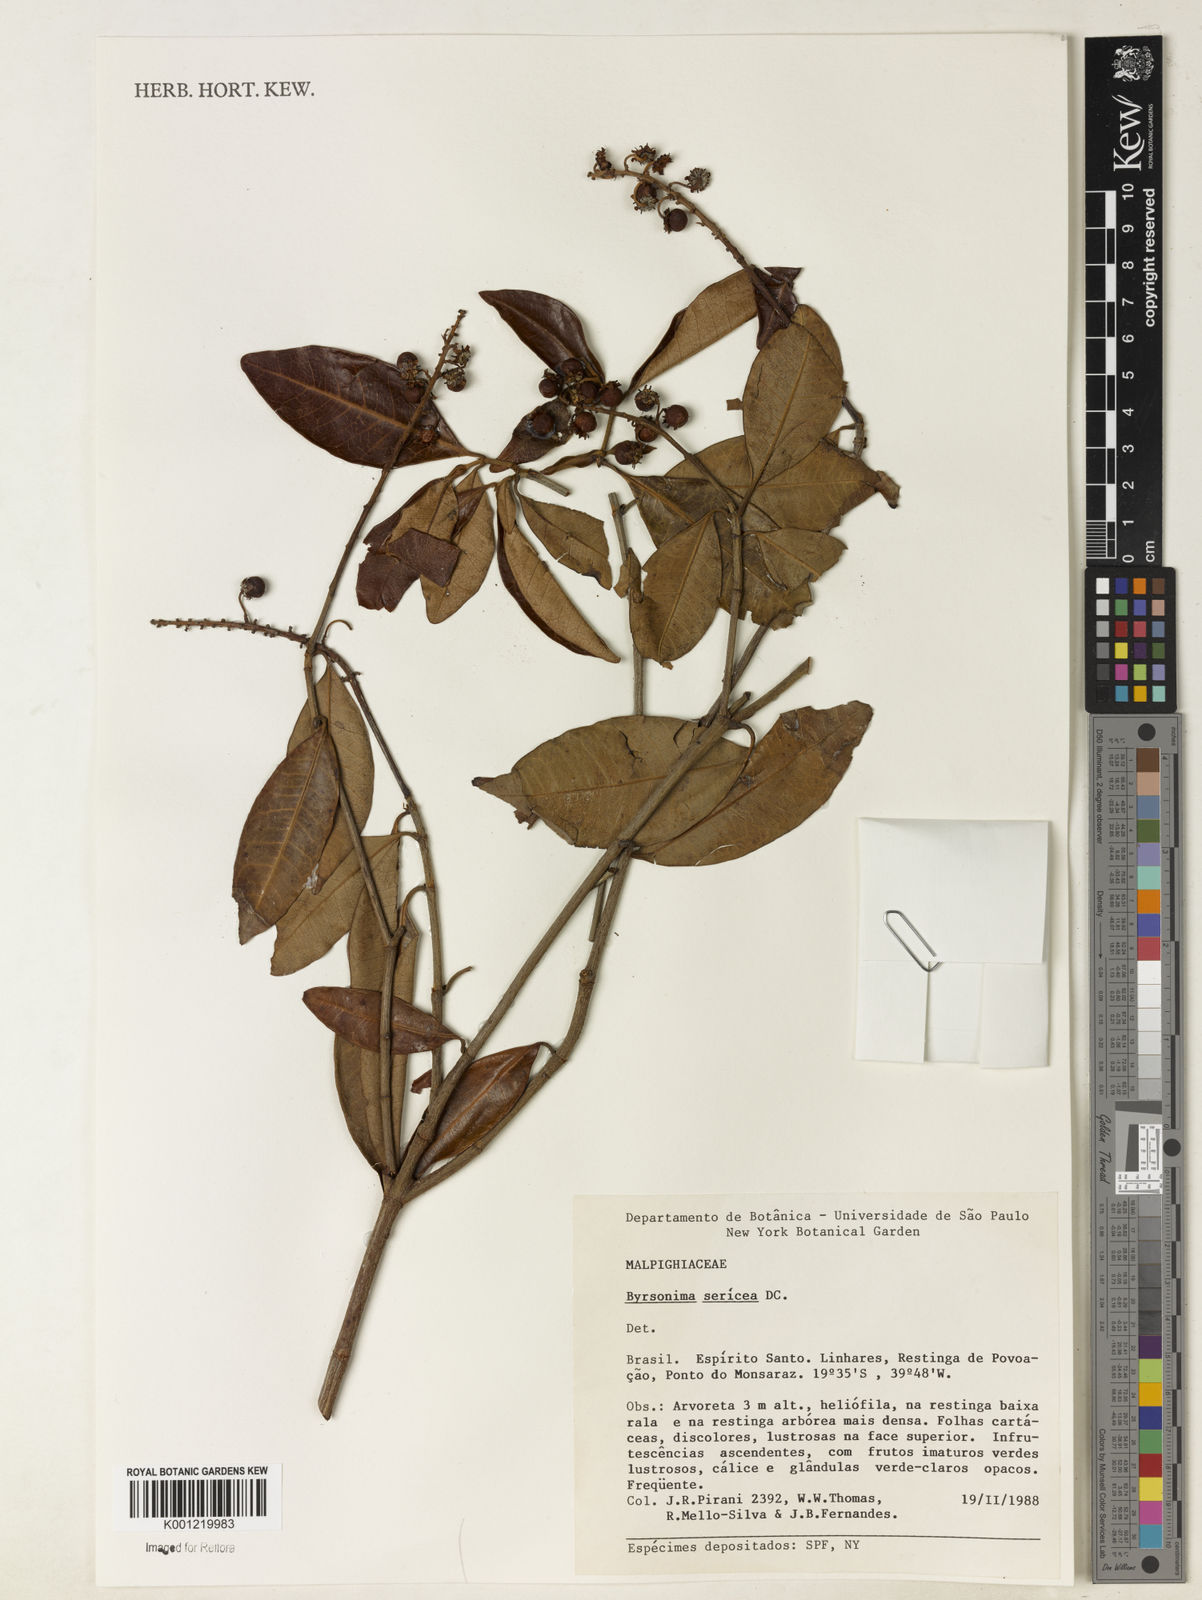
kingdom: Plantae
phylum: Tracheophyta
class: Magnoliopsida
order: Malpighiales
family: Malpighiaceae
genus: Byrsonima
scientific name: Byrsonima sericea
